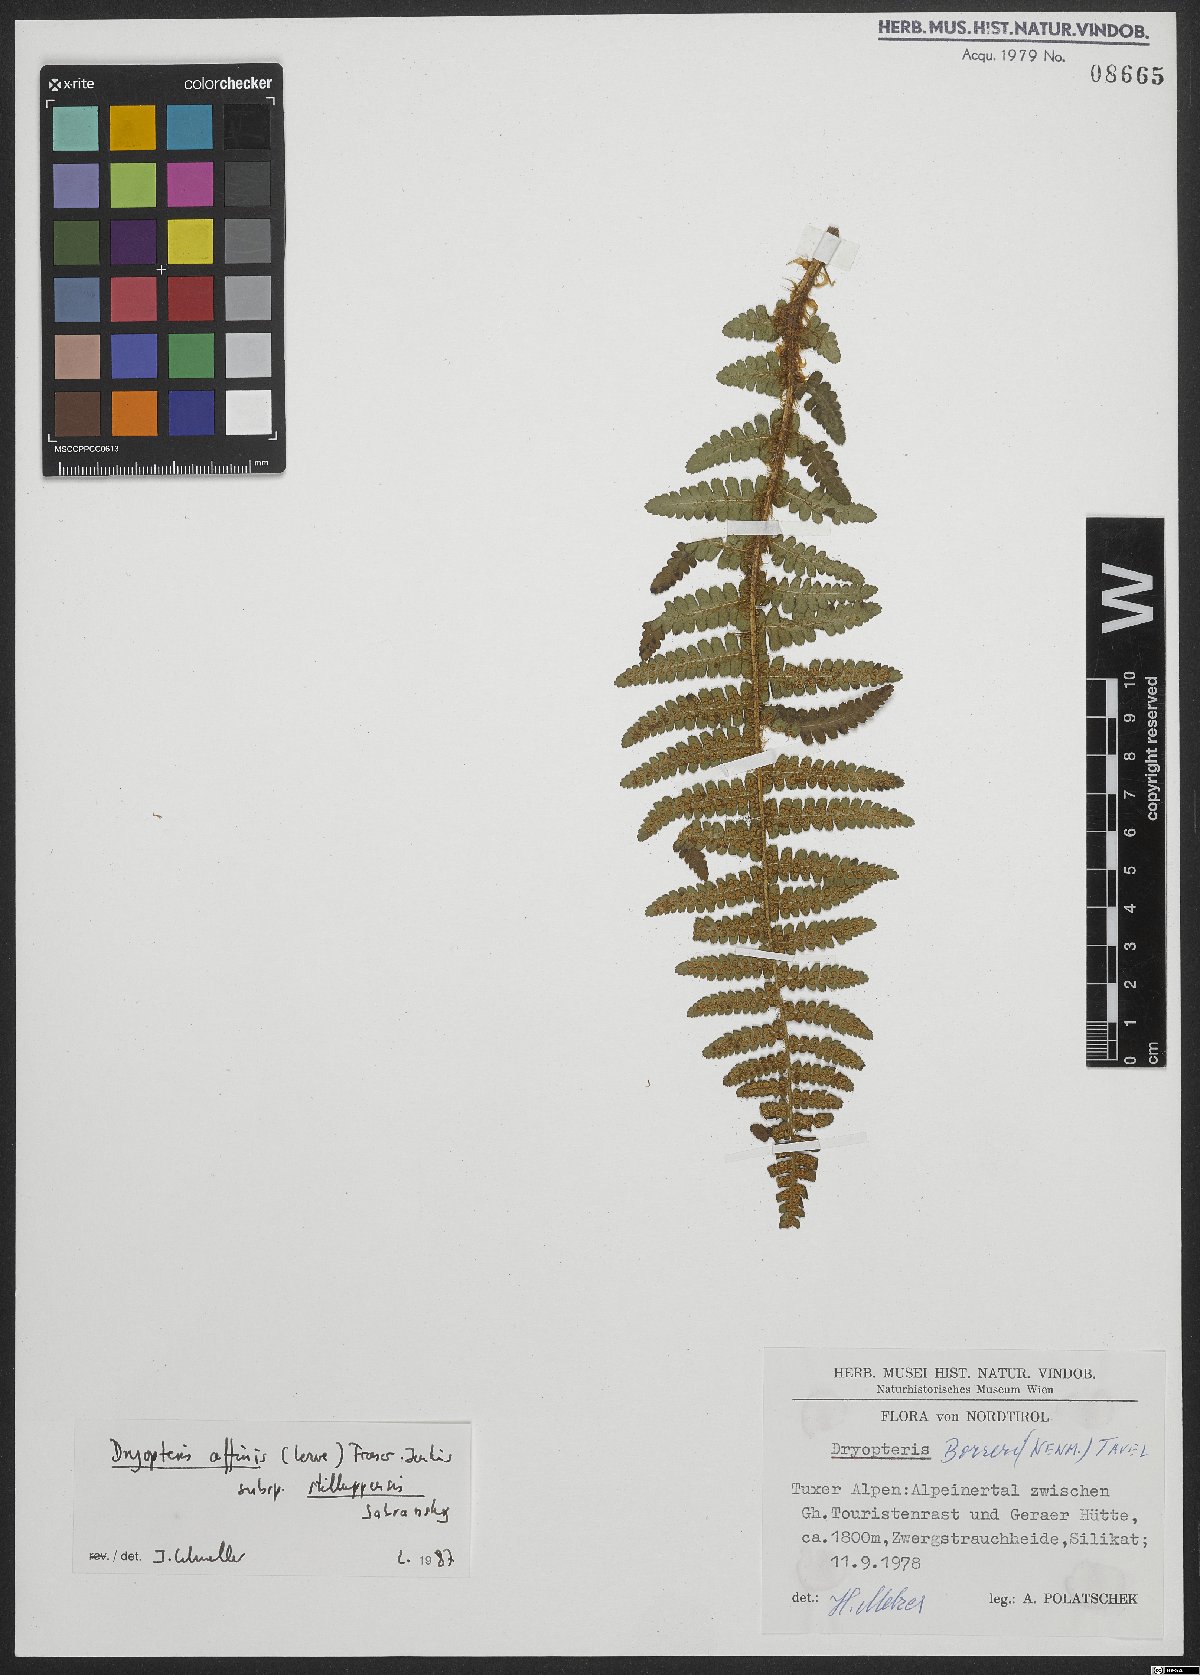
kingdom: Plantae
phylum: Tracheophyta
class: Polypodiopsida
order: Polypodiales
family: Dryopteridaceae
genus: Dryopteris
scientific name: Dryopteris borreri
